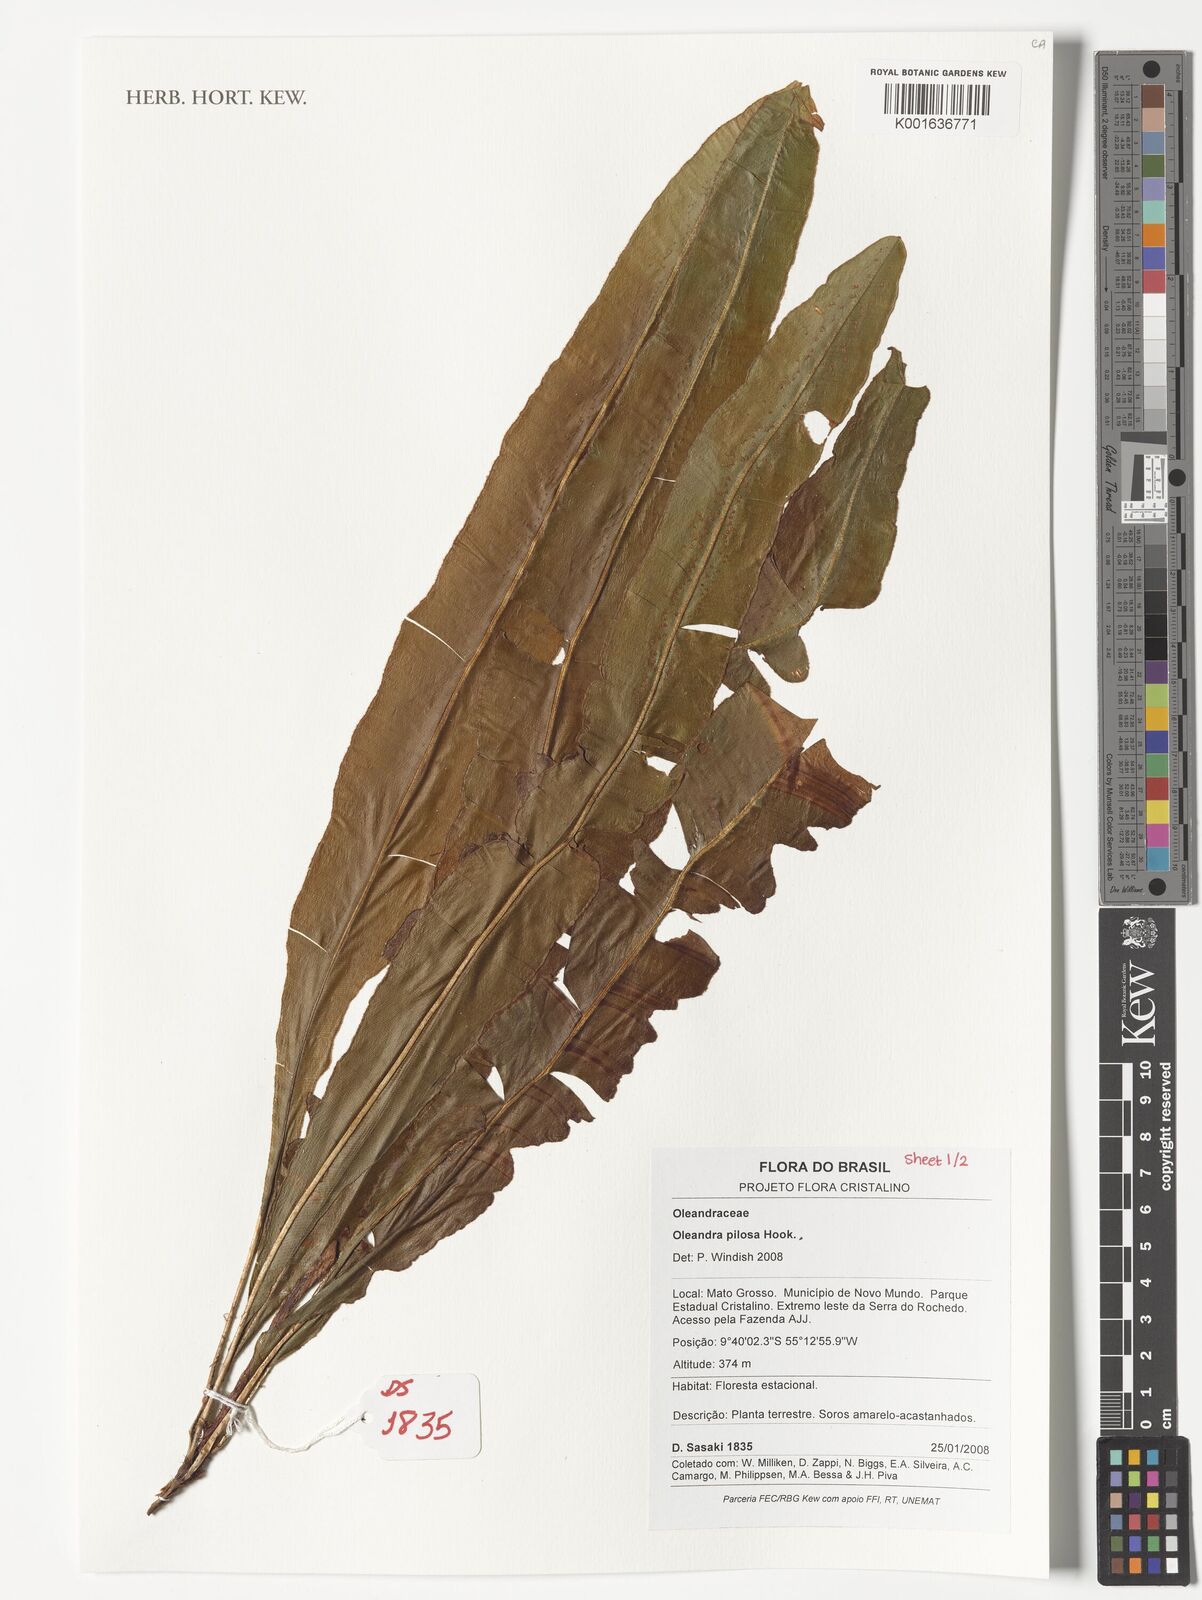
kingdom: Plantae
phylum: Tracheophyta
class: Polypodiopsida
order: Polypodiales
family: Oleandraceae
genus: Oleandra
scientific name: Oleandra pilosa
